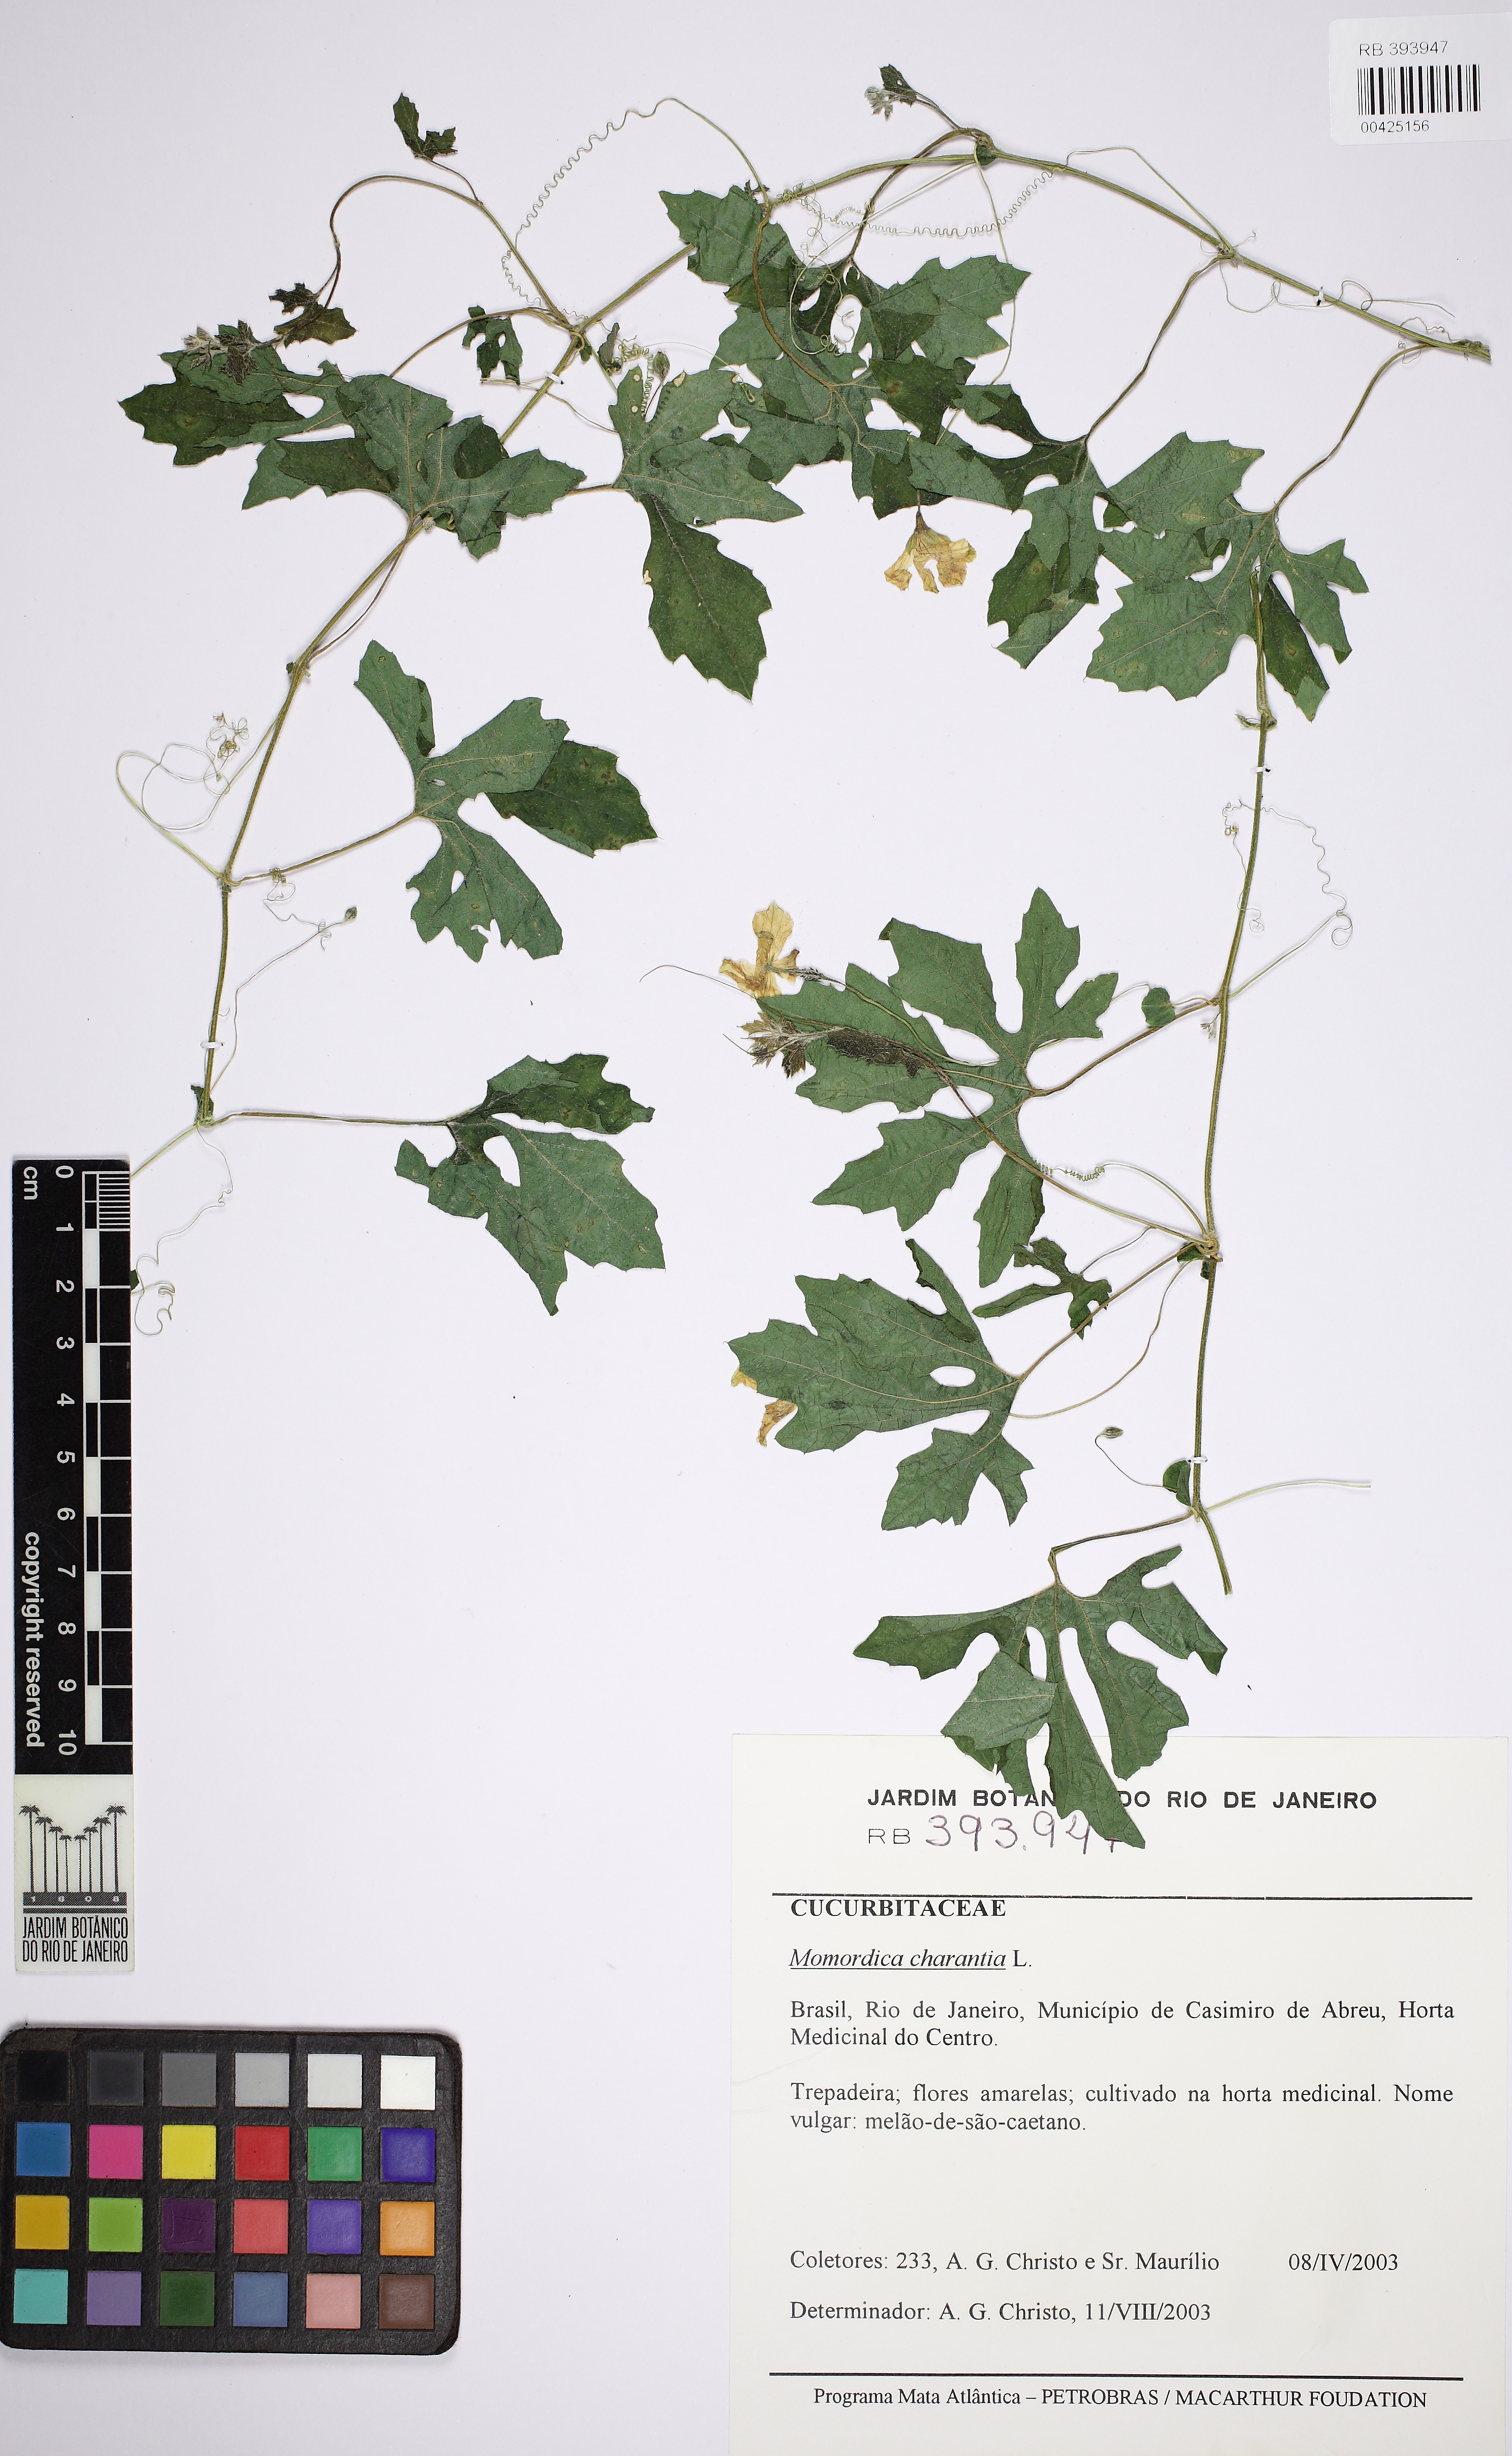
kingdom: Plantae
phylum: Tracheophyta
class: Magnoliopsida
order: Cucurbitales
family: Cucurbitaceae
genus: Momordica
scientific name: Momordica charantia
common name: Balsampear
